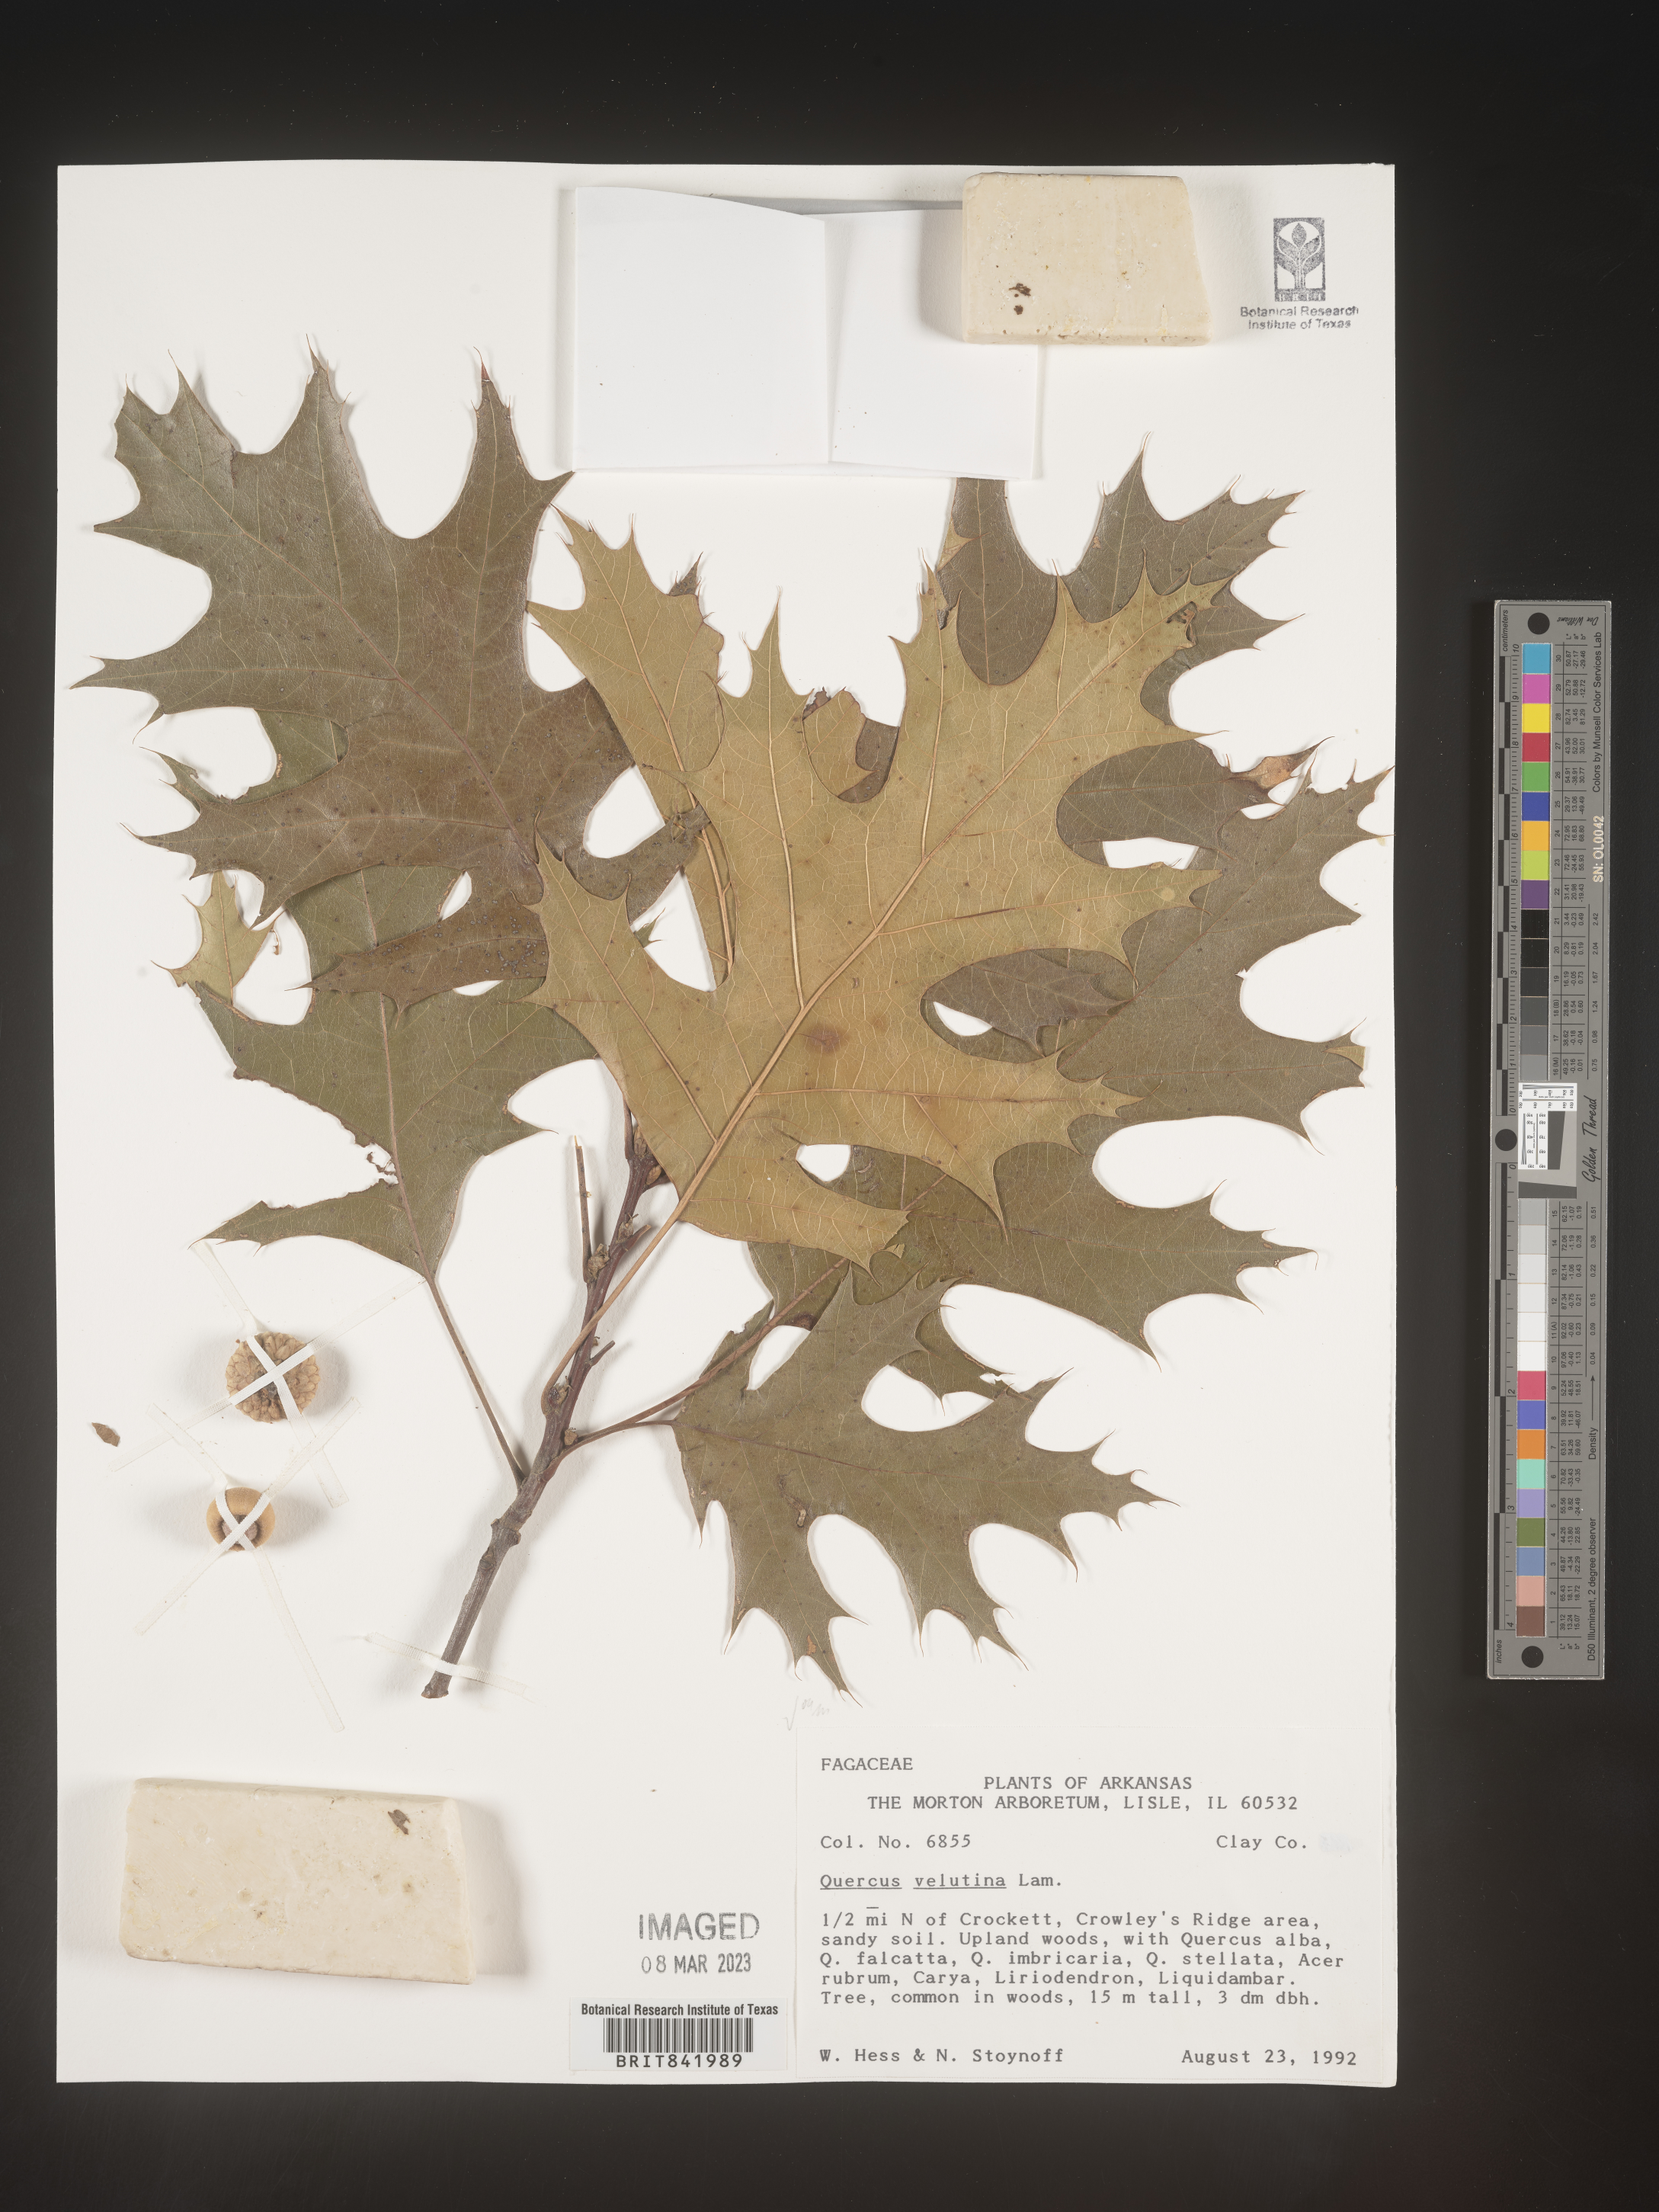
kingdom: Plantae
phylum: Tracheophyta
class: Magnoliopsida
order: Fagales
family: Fagaceae
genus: Quercus
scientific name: Quercus velutina
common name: Black oak
